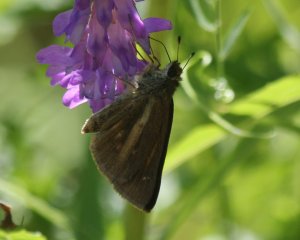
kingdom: Animalia
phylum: Arthropoda
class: Insecta
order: Lepidoptera
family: Hesperiidae
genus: Poanes
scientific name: Poanes viator
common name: Broad-winged Skipper
